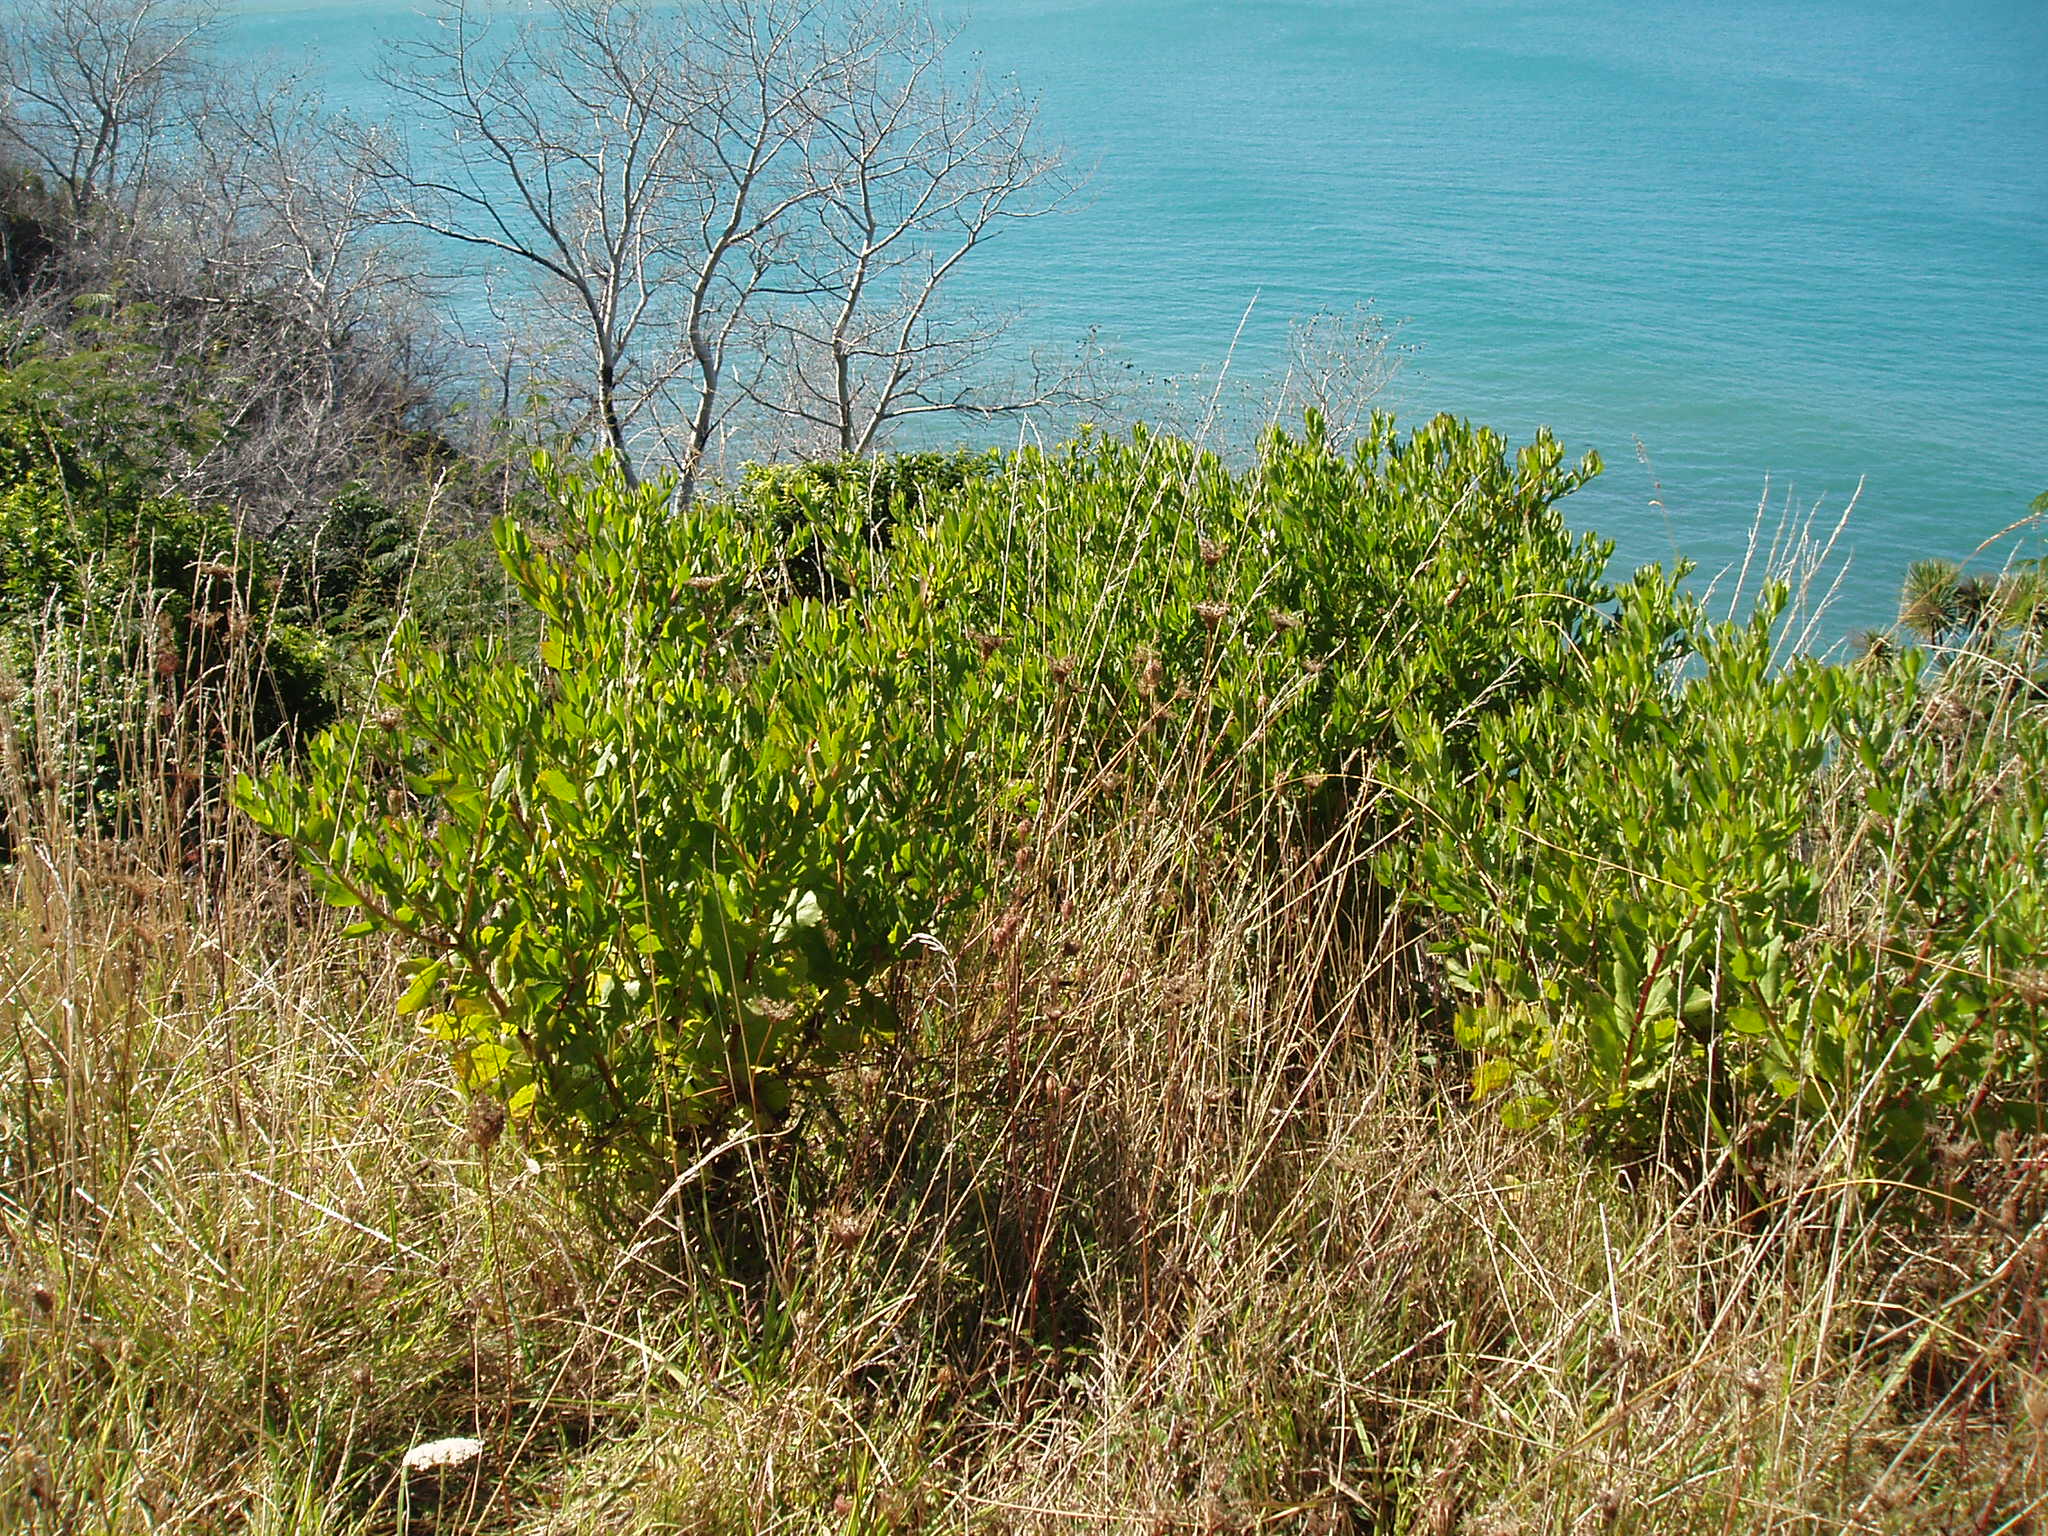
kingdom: Plantae
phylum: Tracheophyta
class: Magnoliopsida
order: Asterales
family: Asteraceae
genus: Osteospermum
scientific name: Osteospermum moniliferum
